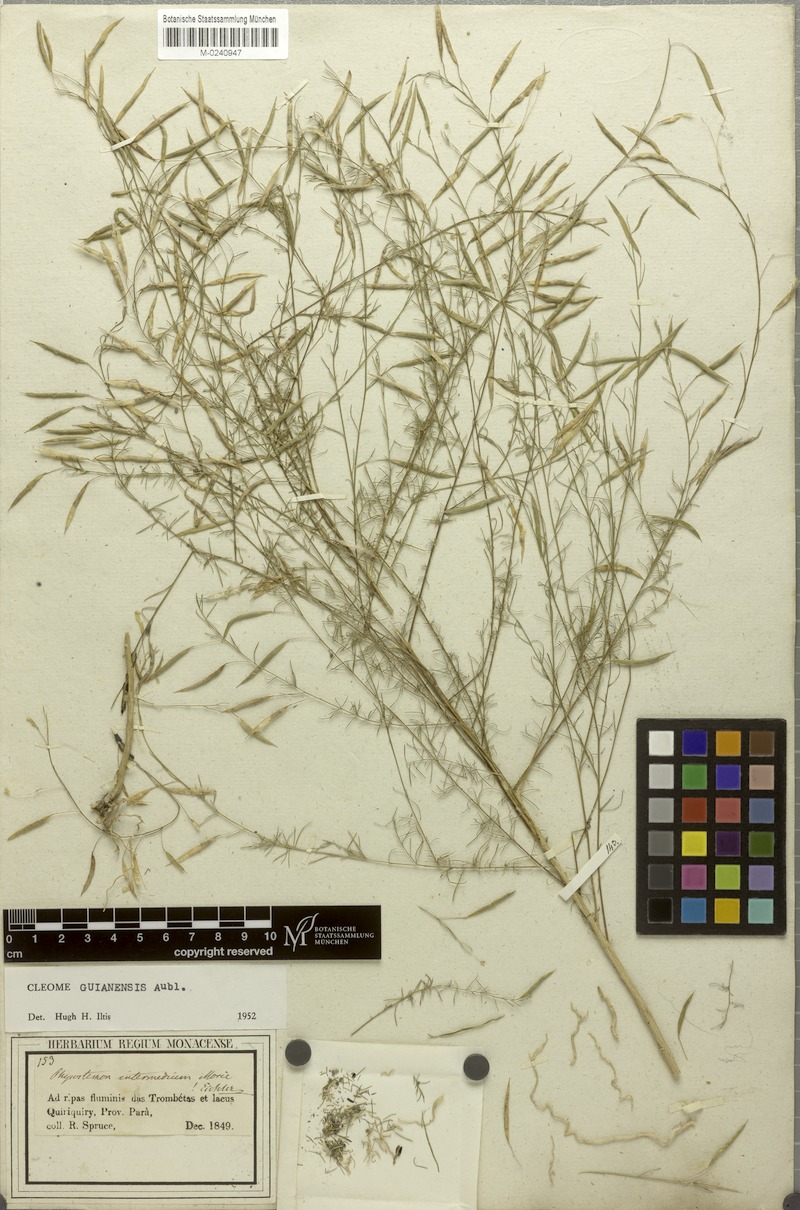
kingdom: Plantae
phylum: Tracheophyta
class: Magnoliopsida
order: Brassicales
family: Cleomaceae
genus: Physostemon
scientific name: Physostemon guianensis
